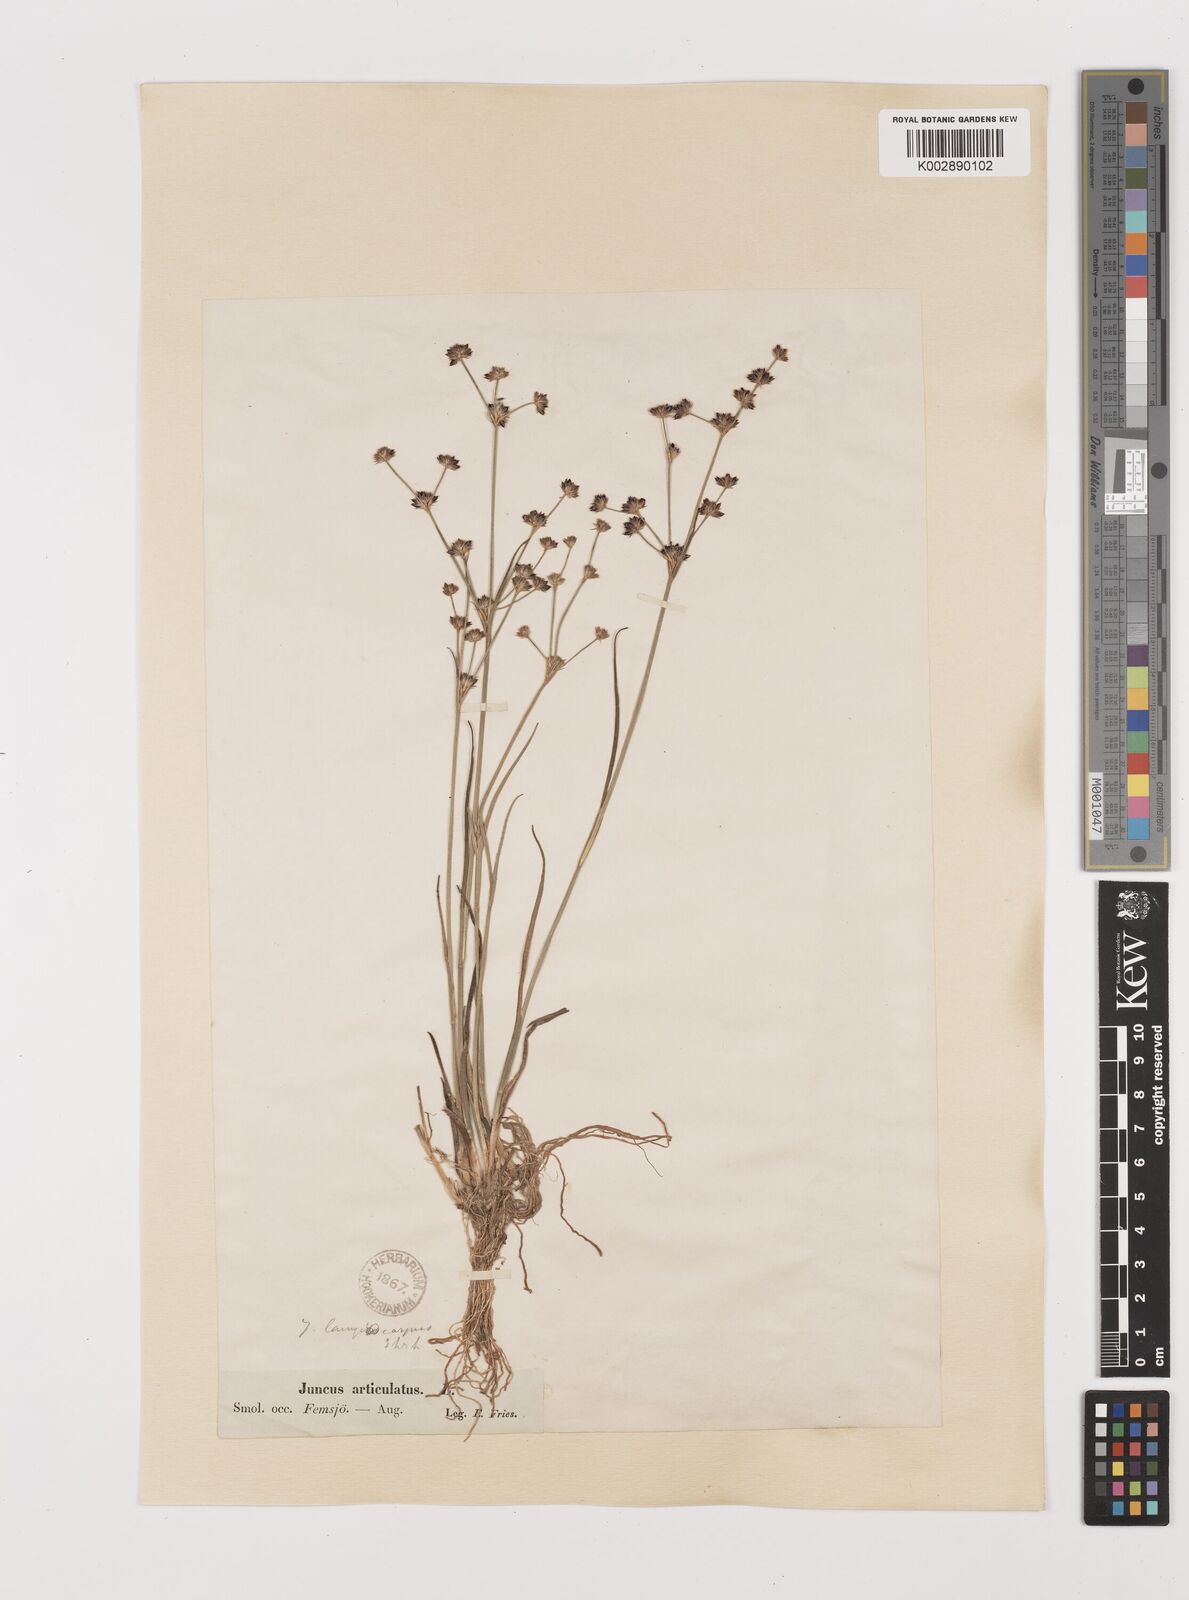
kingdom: Plantae
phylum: Tracheophyta
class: Liliopsida
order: Poales
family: Juncaceae
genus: Juncus
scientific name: Juncus articulatus
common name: Jointed rush
